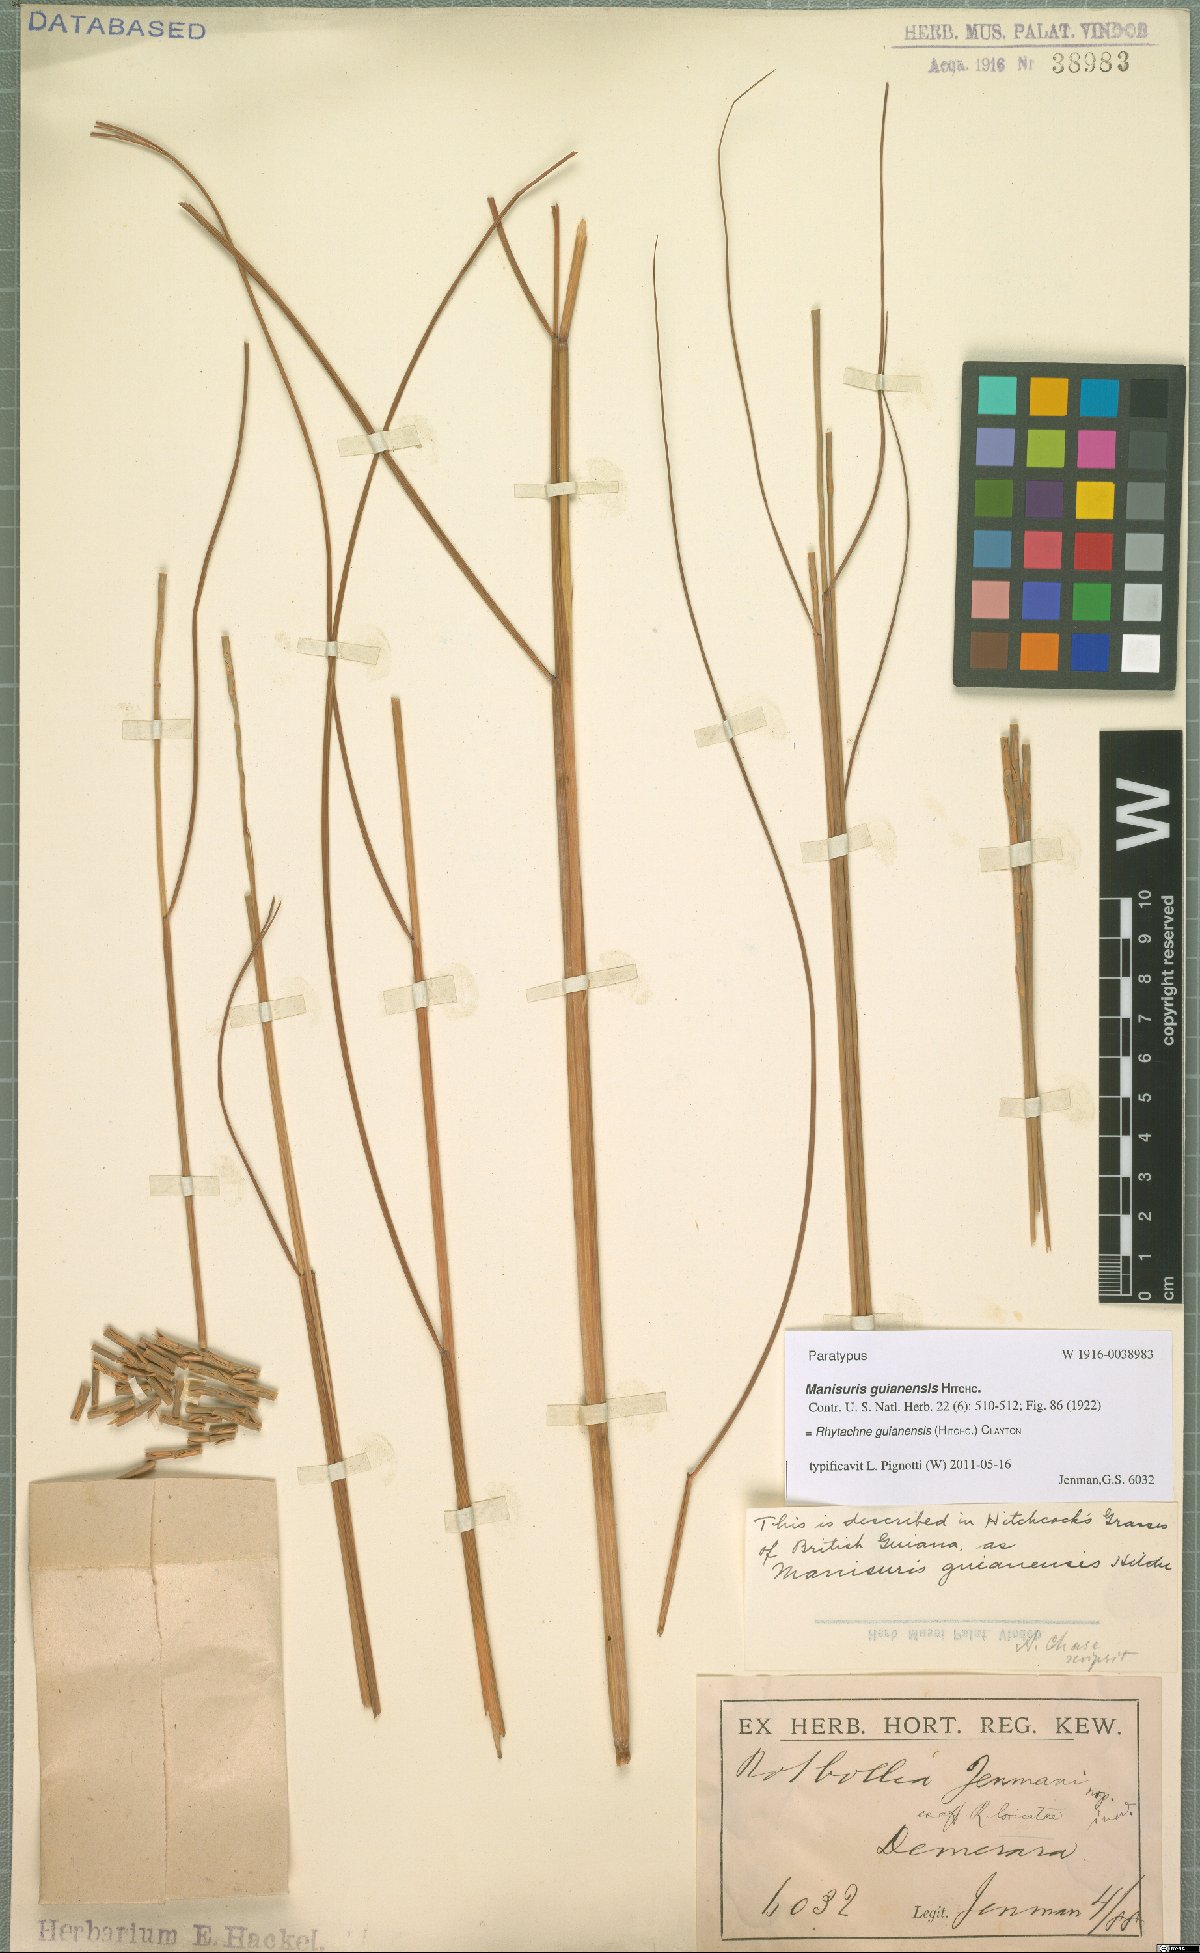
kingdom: Plantae
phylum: Tracheophyta
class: Liliopsida
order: Poales
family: Poaceae
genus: Rhytachne
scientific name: Rhytachne guianensis
